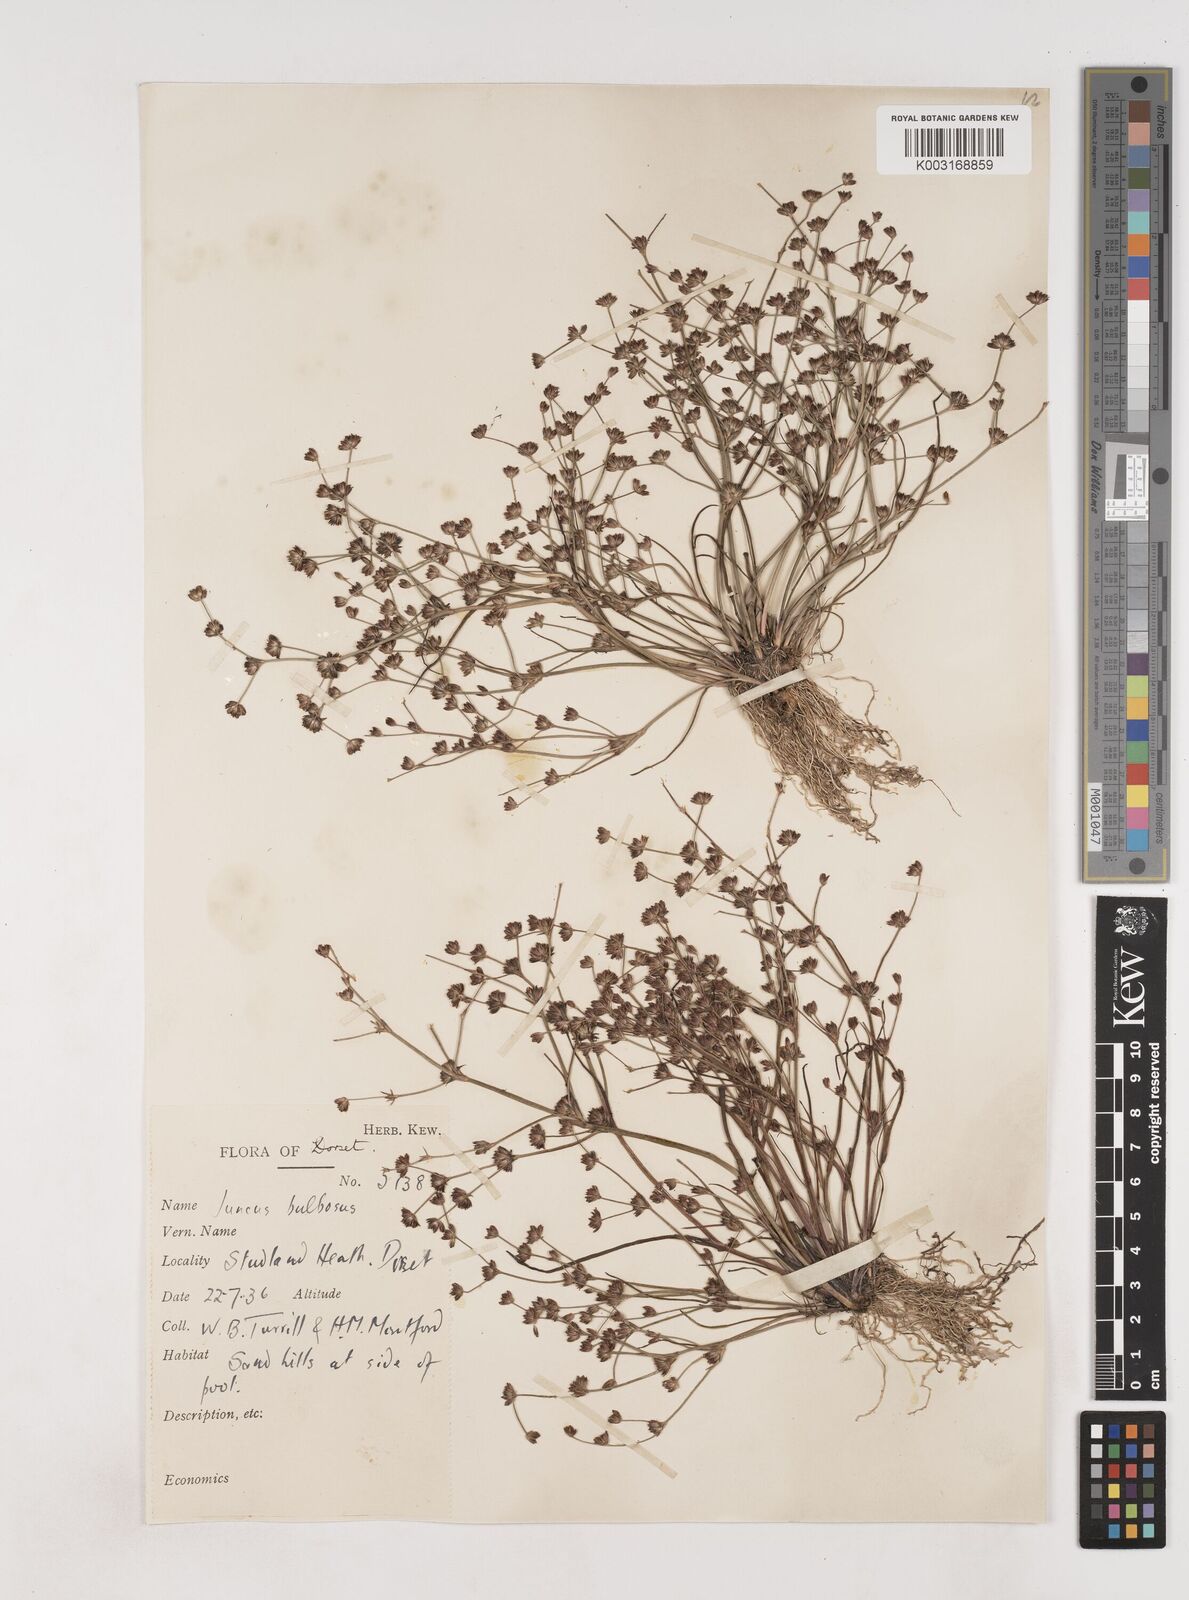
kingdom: Plantae
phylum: Tracheophyta
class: Liliopsida
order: Poales
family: Juncaceae
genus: Juncus
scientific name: Juncus bulbosus
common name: Bulbous rush
